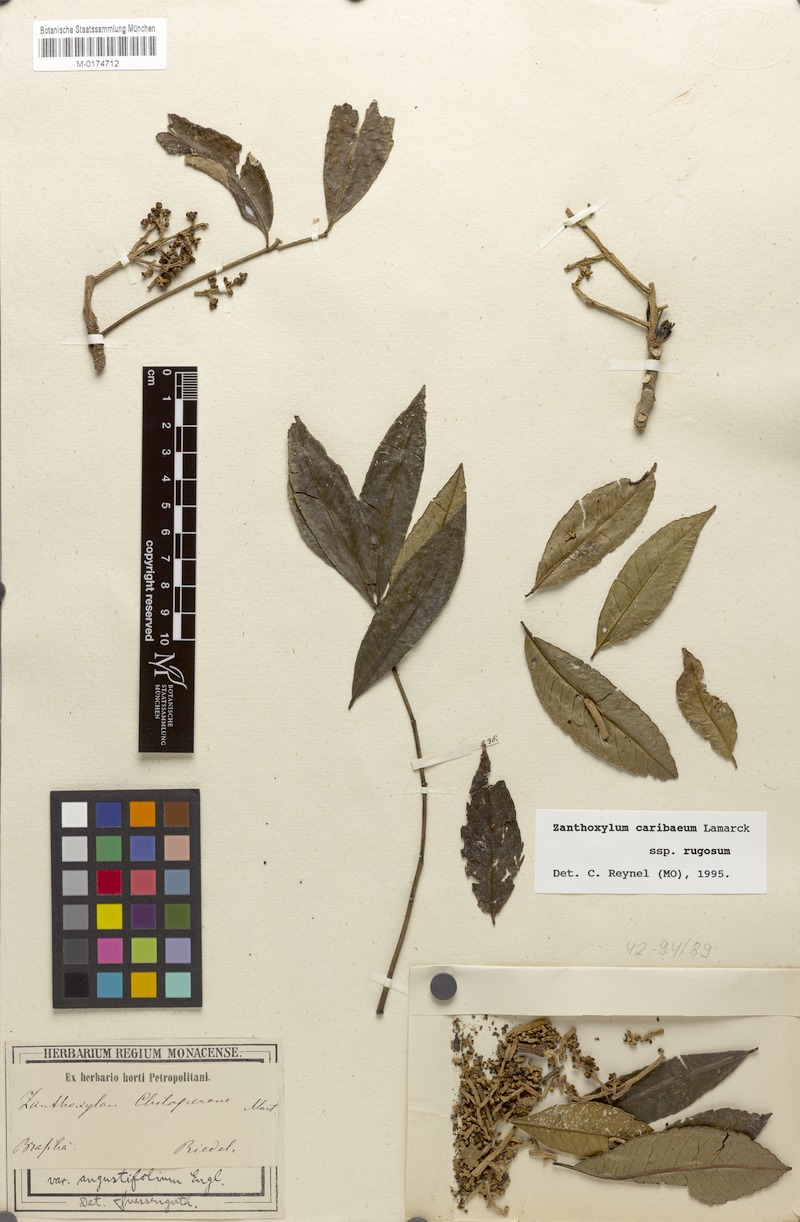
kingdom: Plantae
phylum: Tracheophyta
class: Magnoliopsida
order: Sapindales
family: Rutaceae
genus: Zanthoxylum
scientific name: Zanthoxylum caribaeum
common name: Prickly yellow
